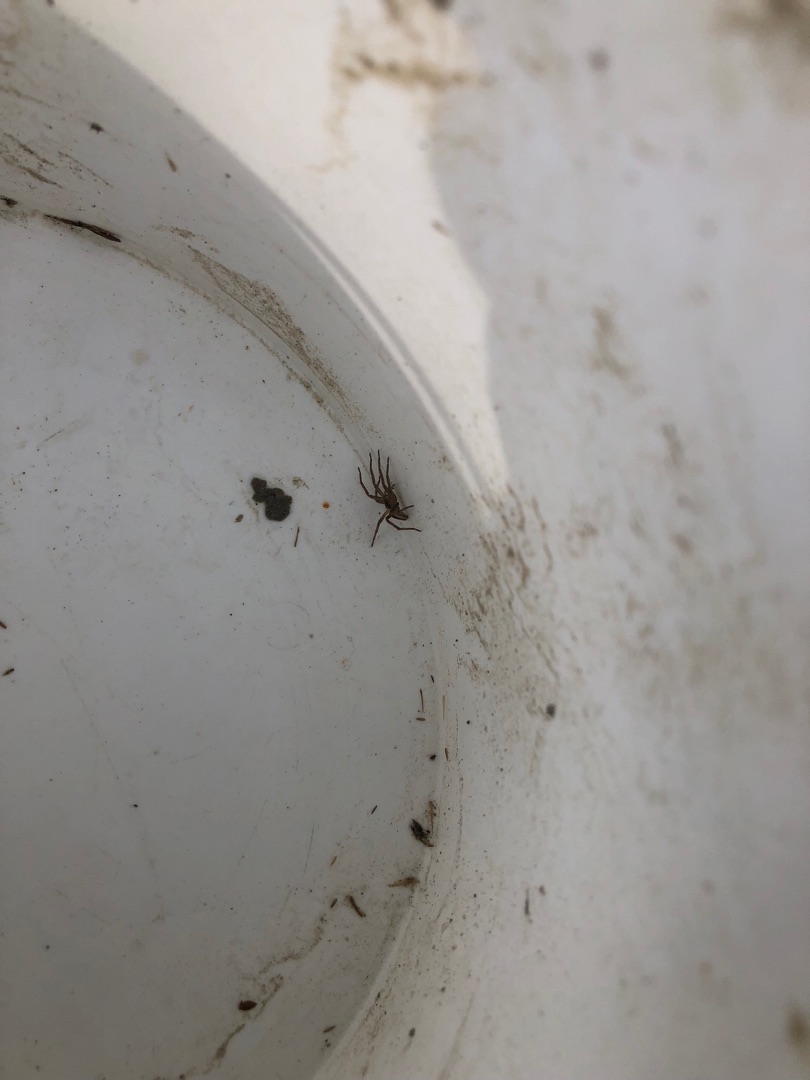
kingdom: Animalia
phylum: Arthropoda
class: Arachnida
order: Araneae
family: Pisauridae
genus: Pisaura
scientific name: Pisaura mirabilis
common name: Almindelig rovedderkop
